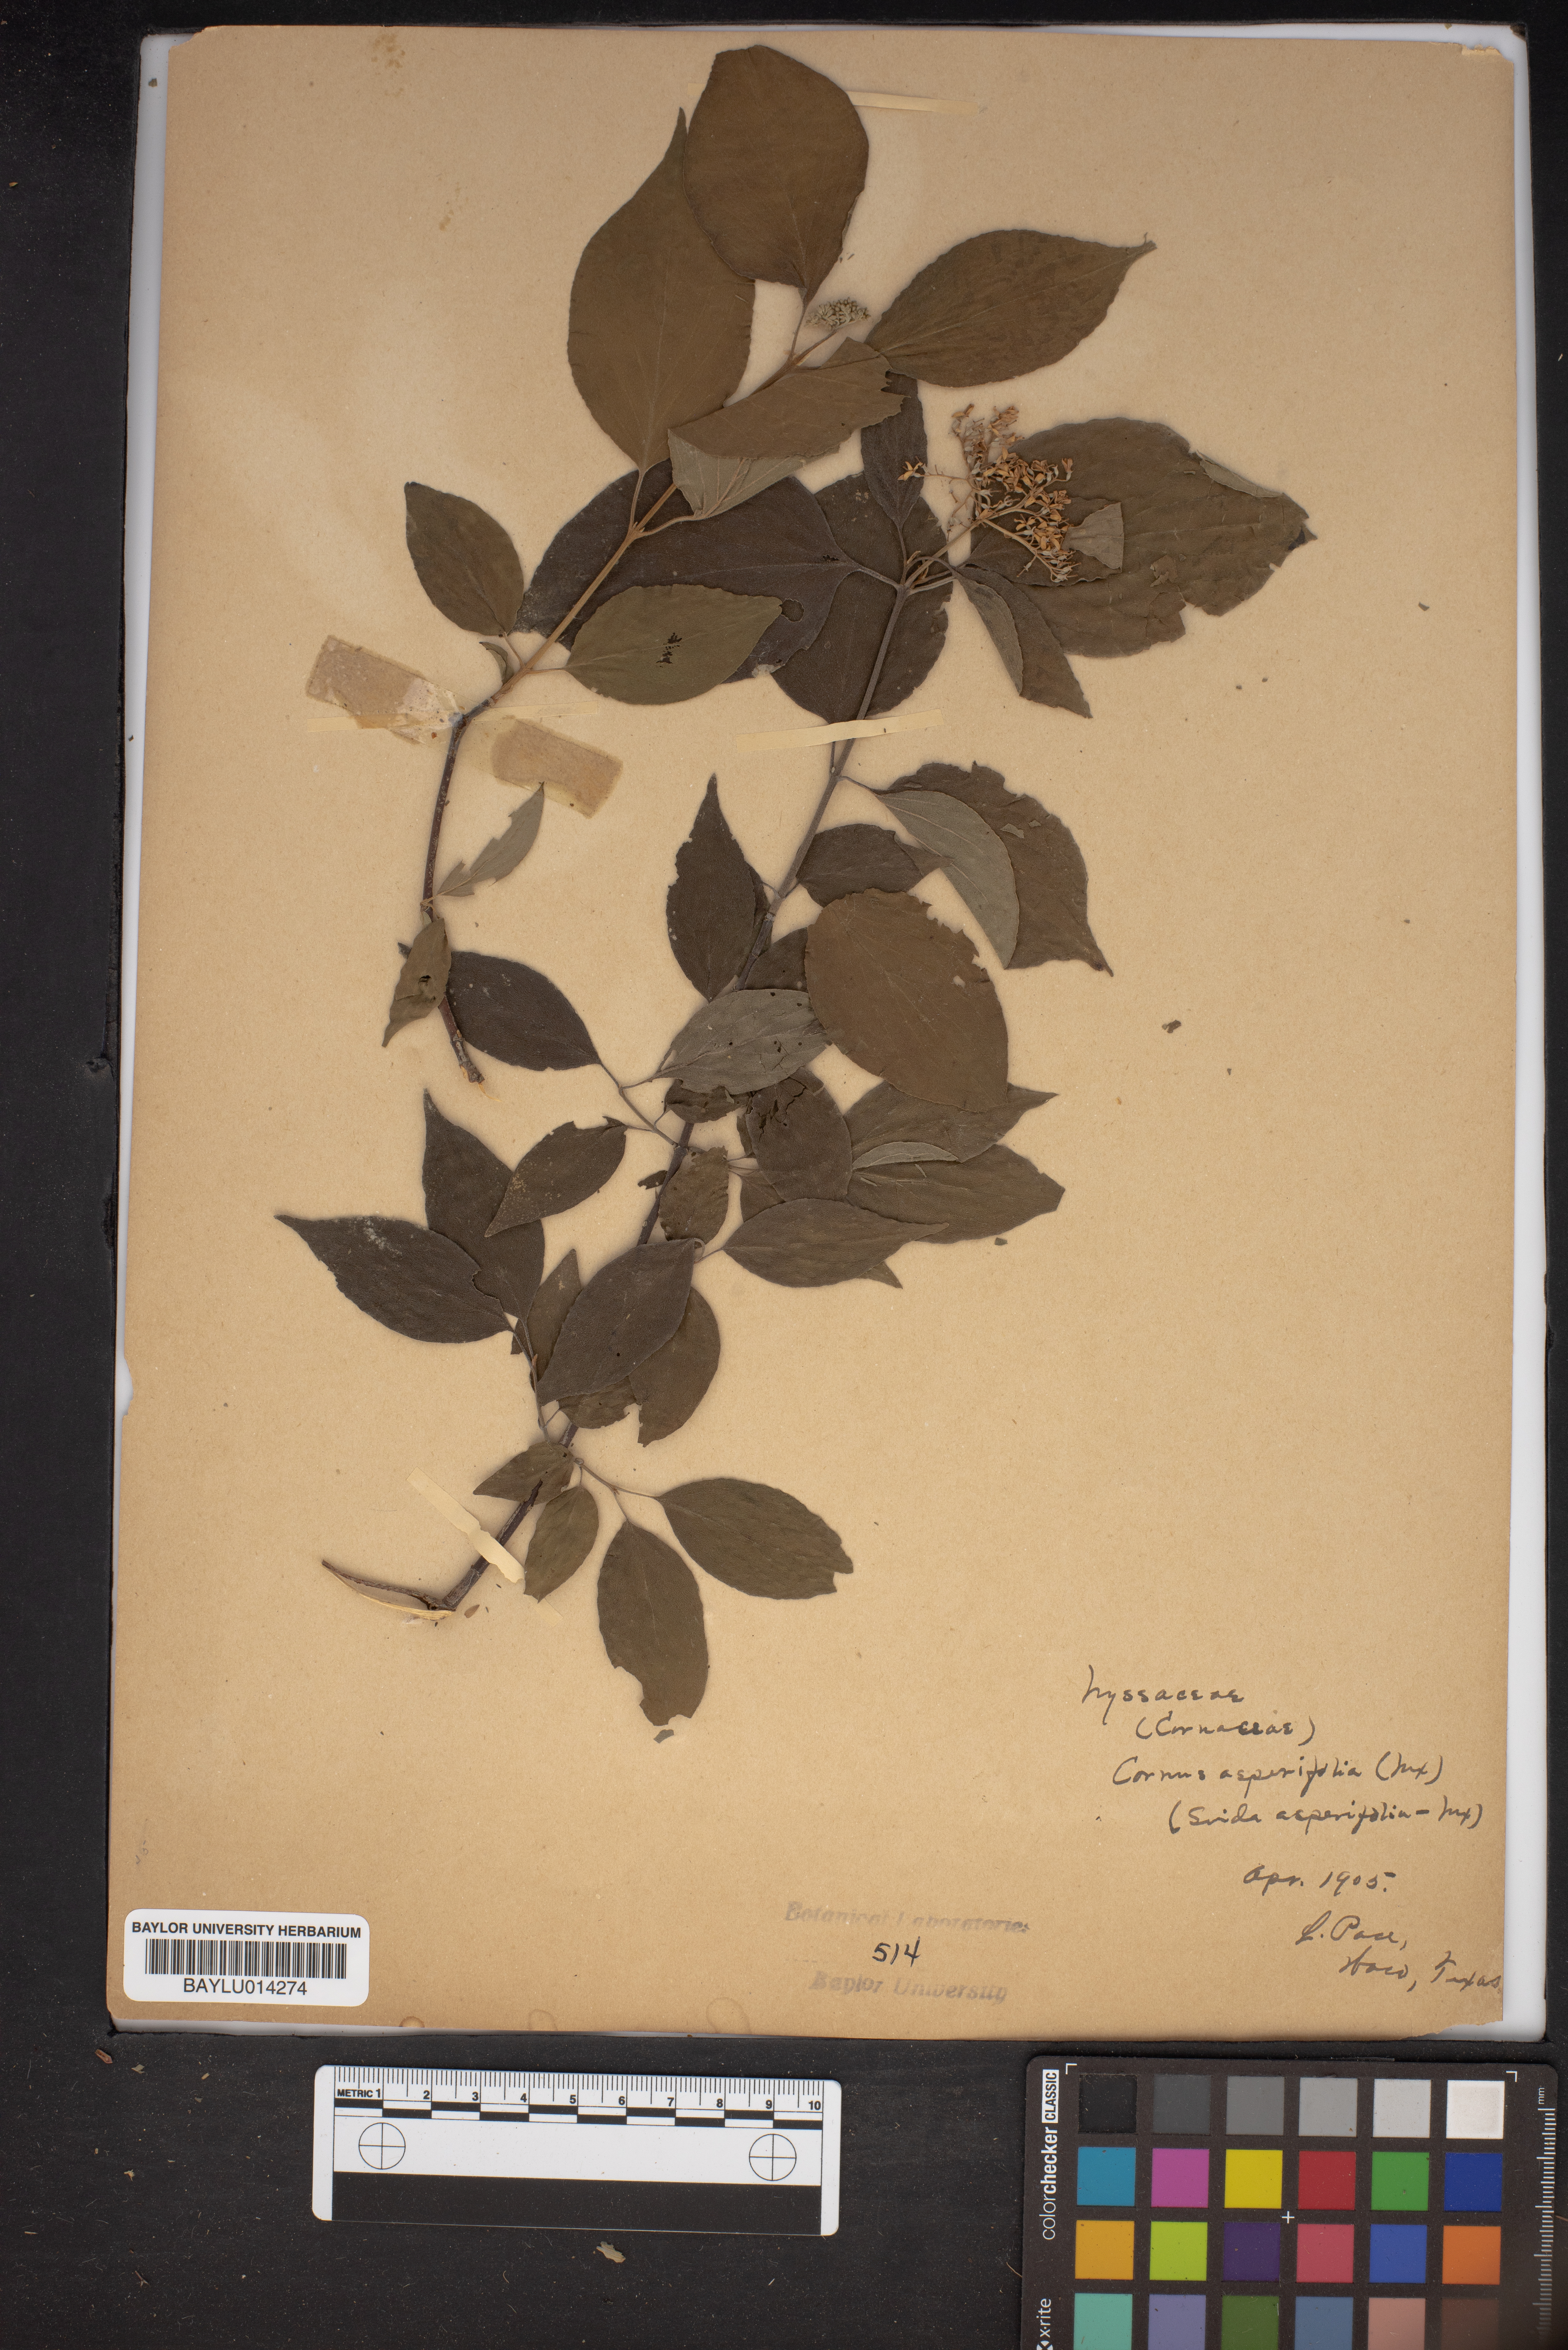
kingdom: Plantae
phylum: Tracheophyta
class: Magnoliopsida
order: Cornales
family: Cornaceae
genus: Cornus
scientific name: Cornus asperifolia
